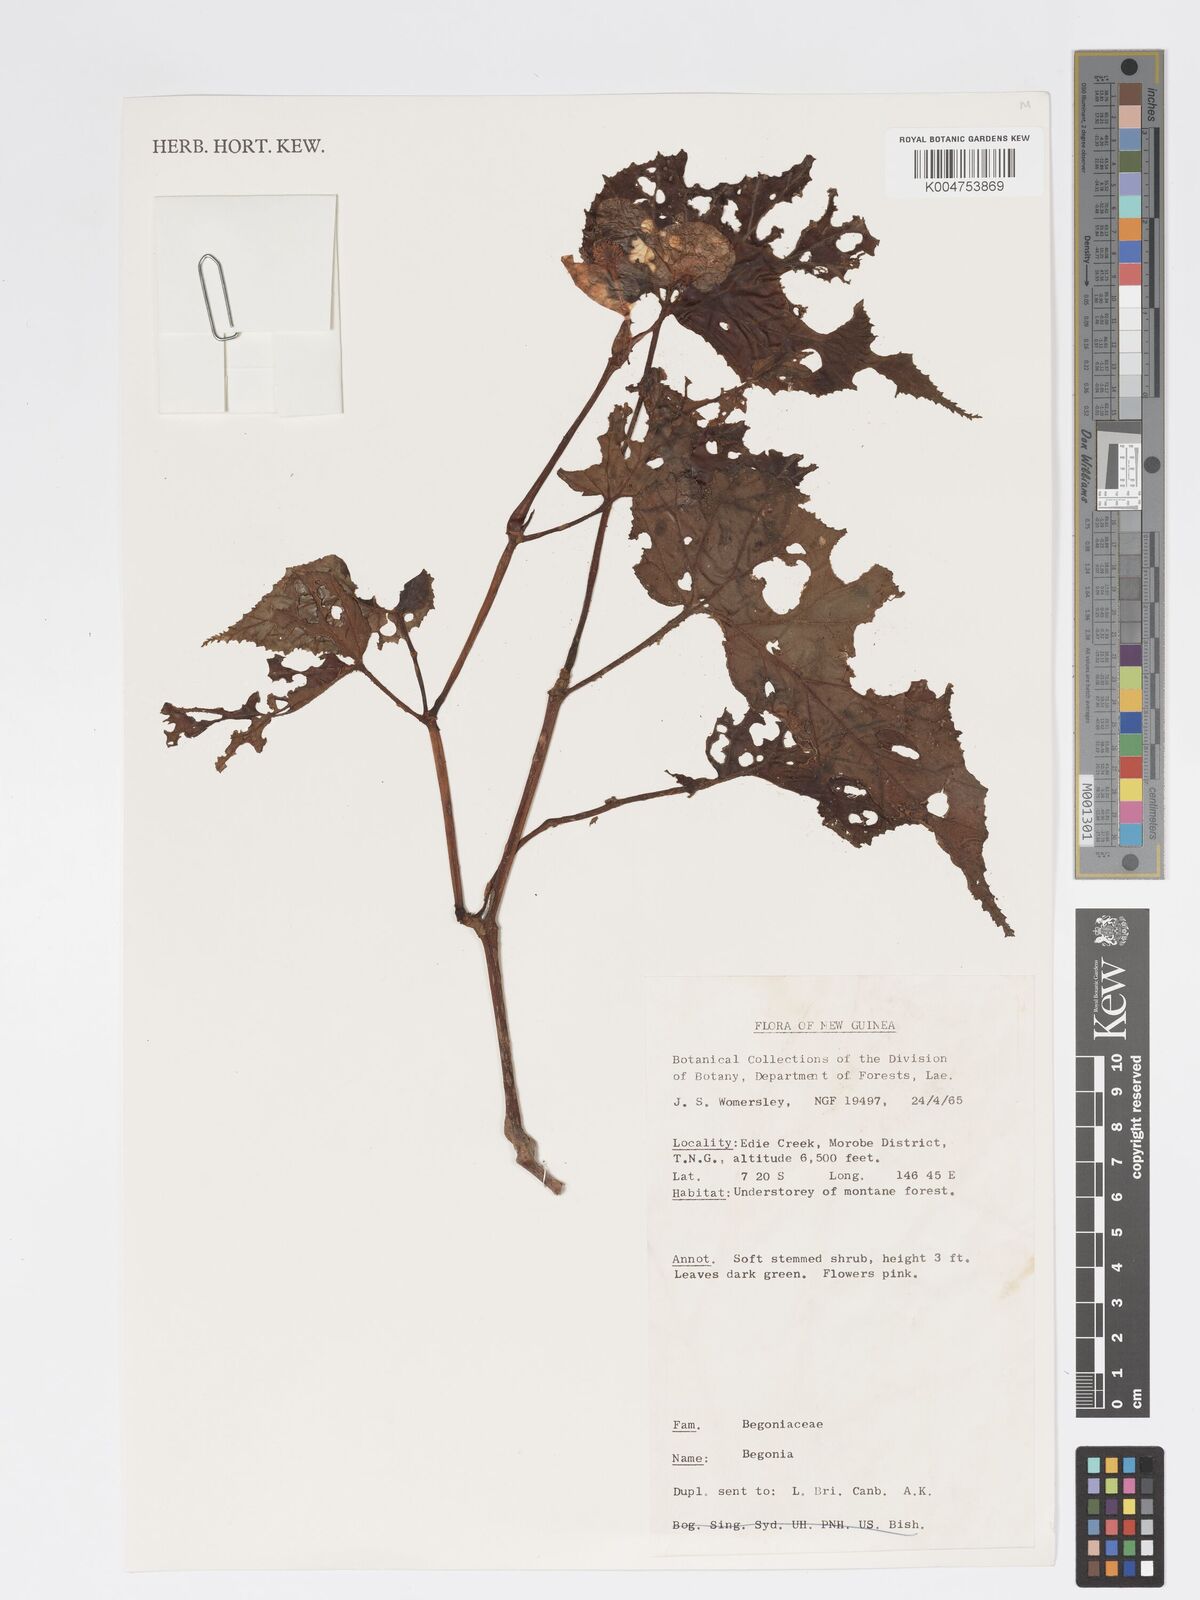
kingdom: Plantae
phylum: Tracheophyta
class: Magnoliopsida
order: Cucurbitales
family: Begoniaceae
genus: Begonia
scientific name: Begonia
